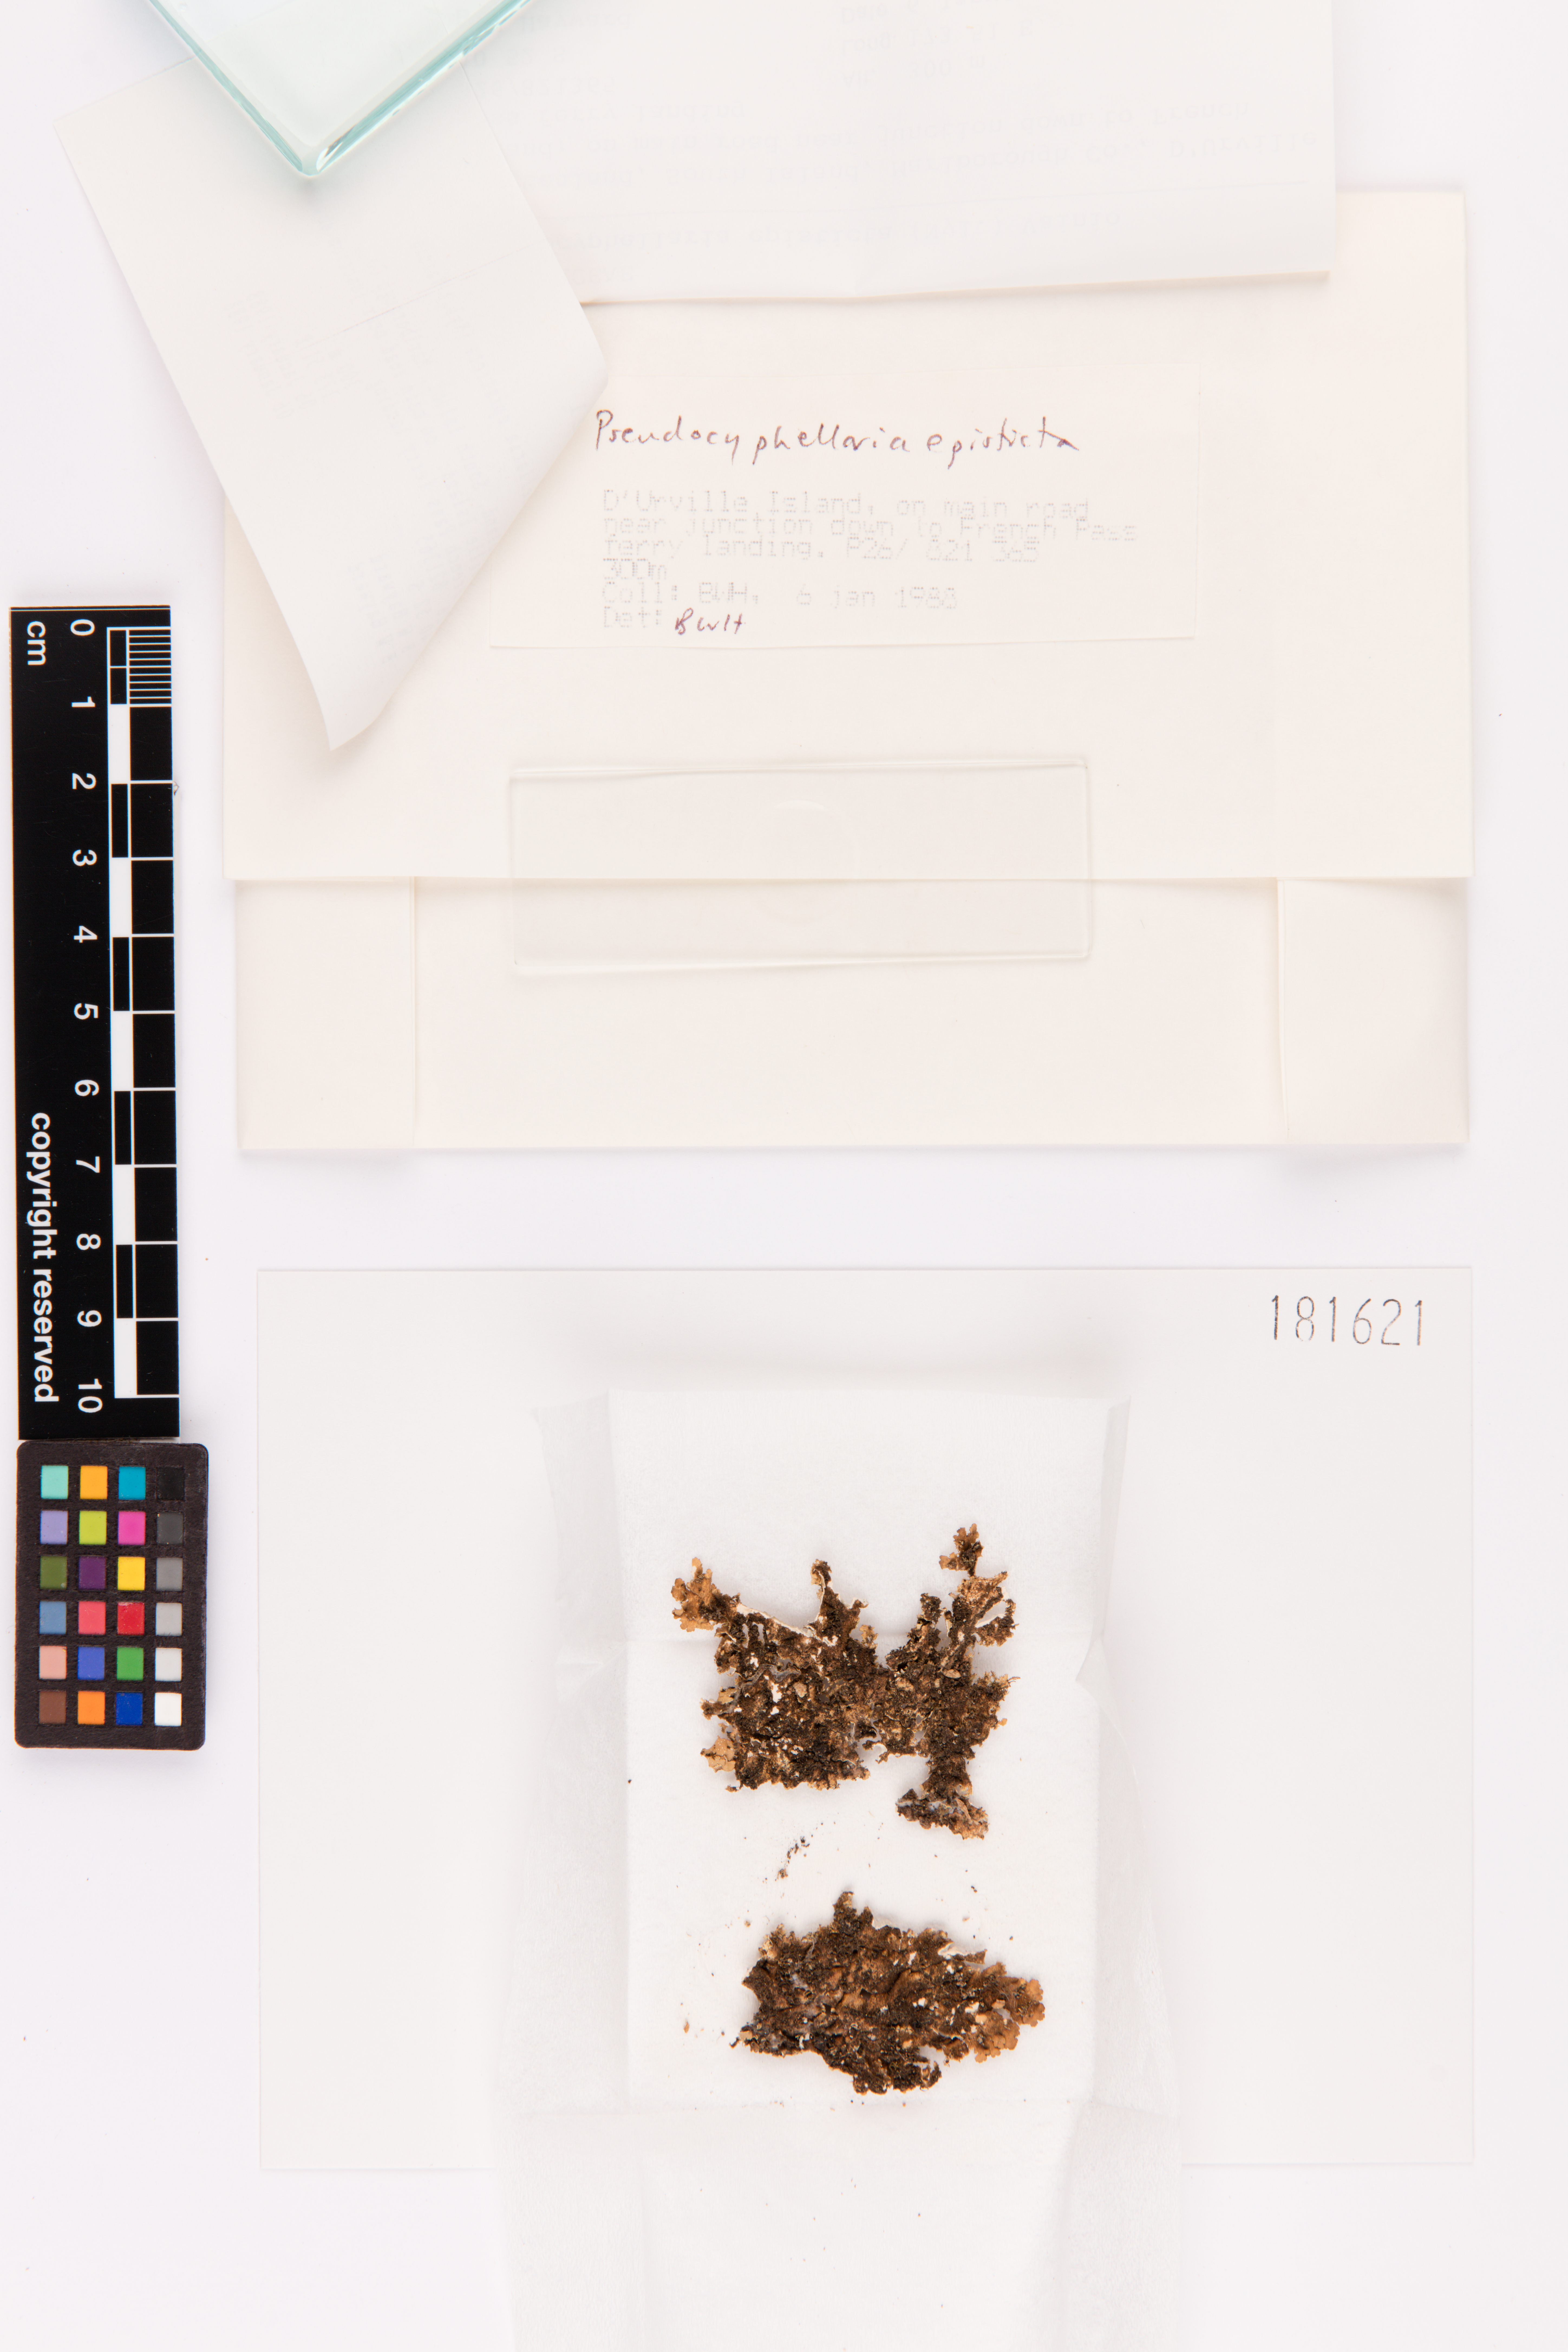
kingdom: Fungi
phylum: Ascomycota
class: Lecanoromycetes
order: Peltigerales
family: Lobariaceae
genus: Pseudocyphellaria
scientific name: Pseudocyphellaria episticta
